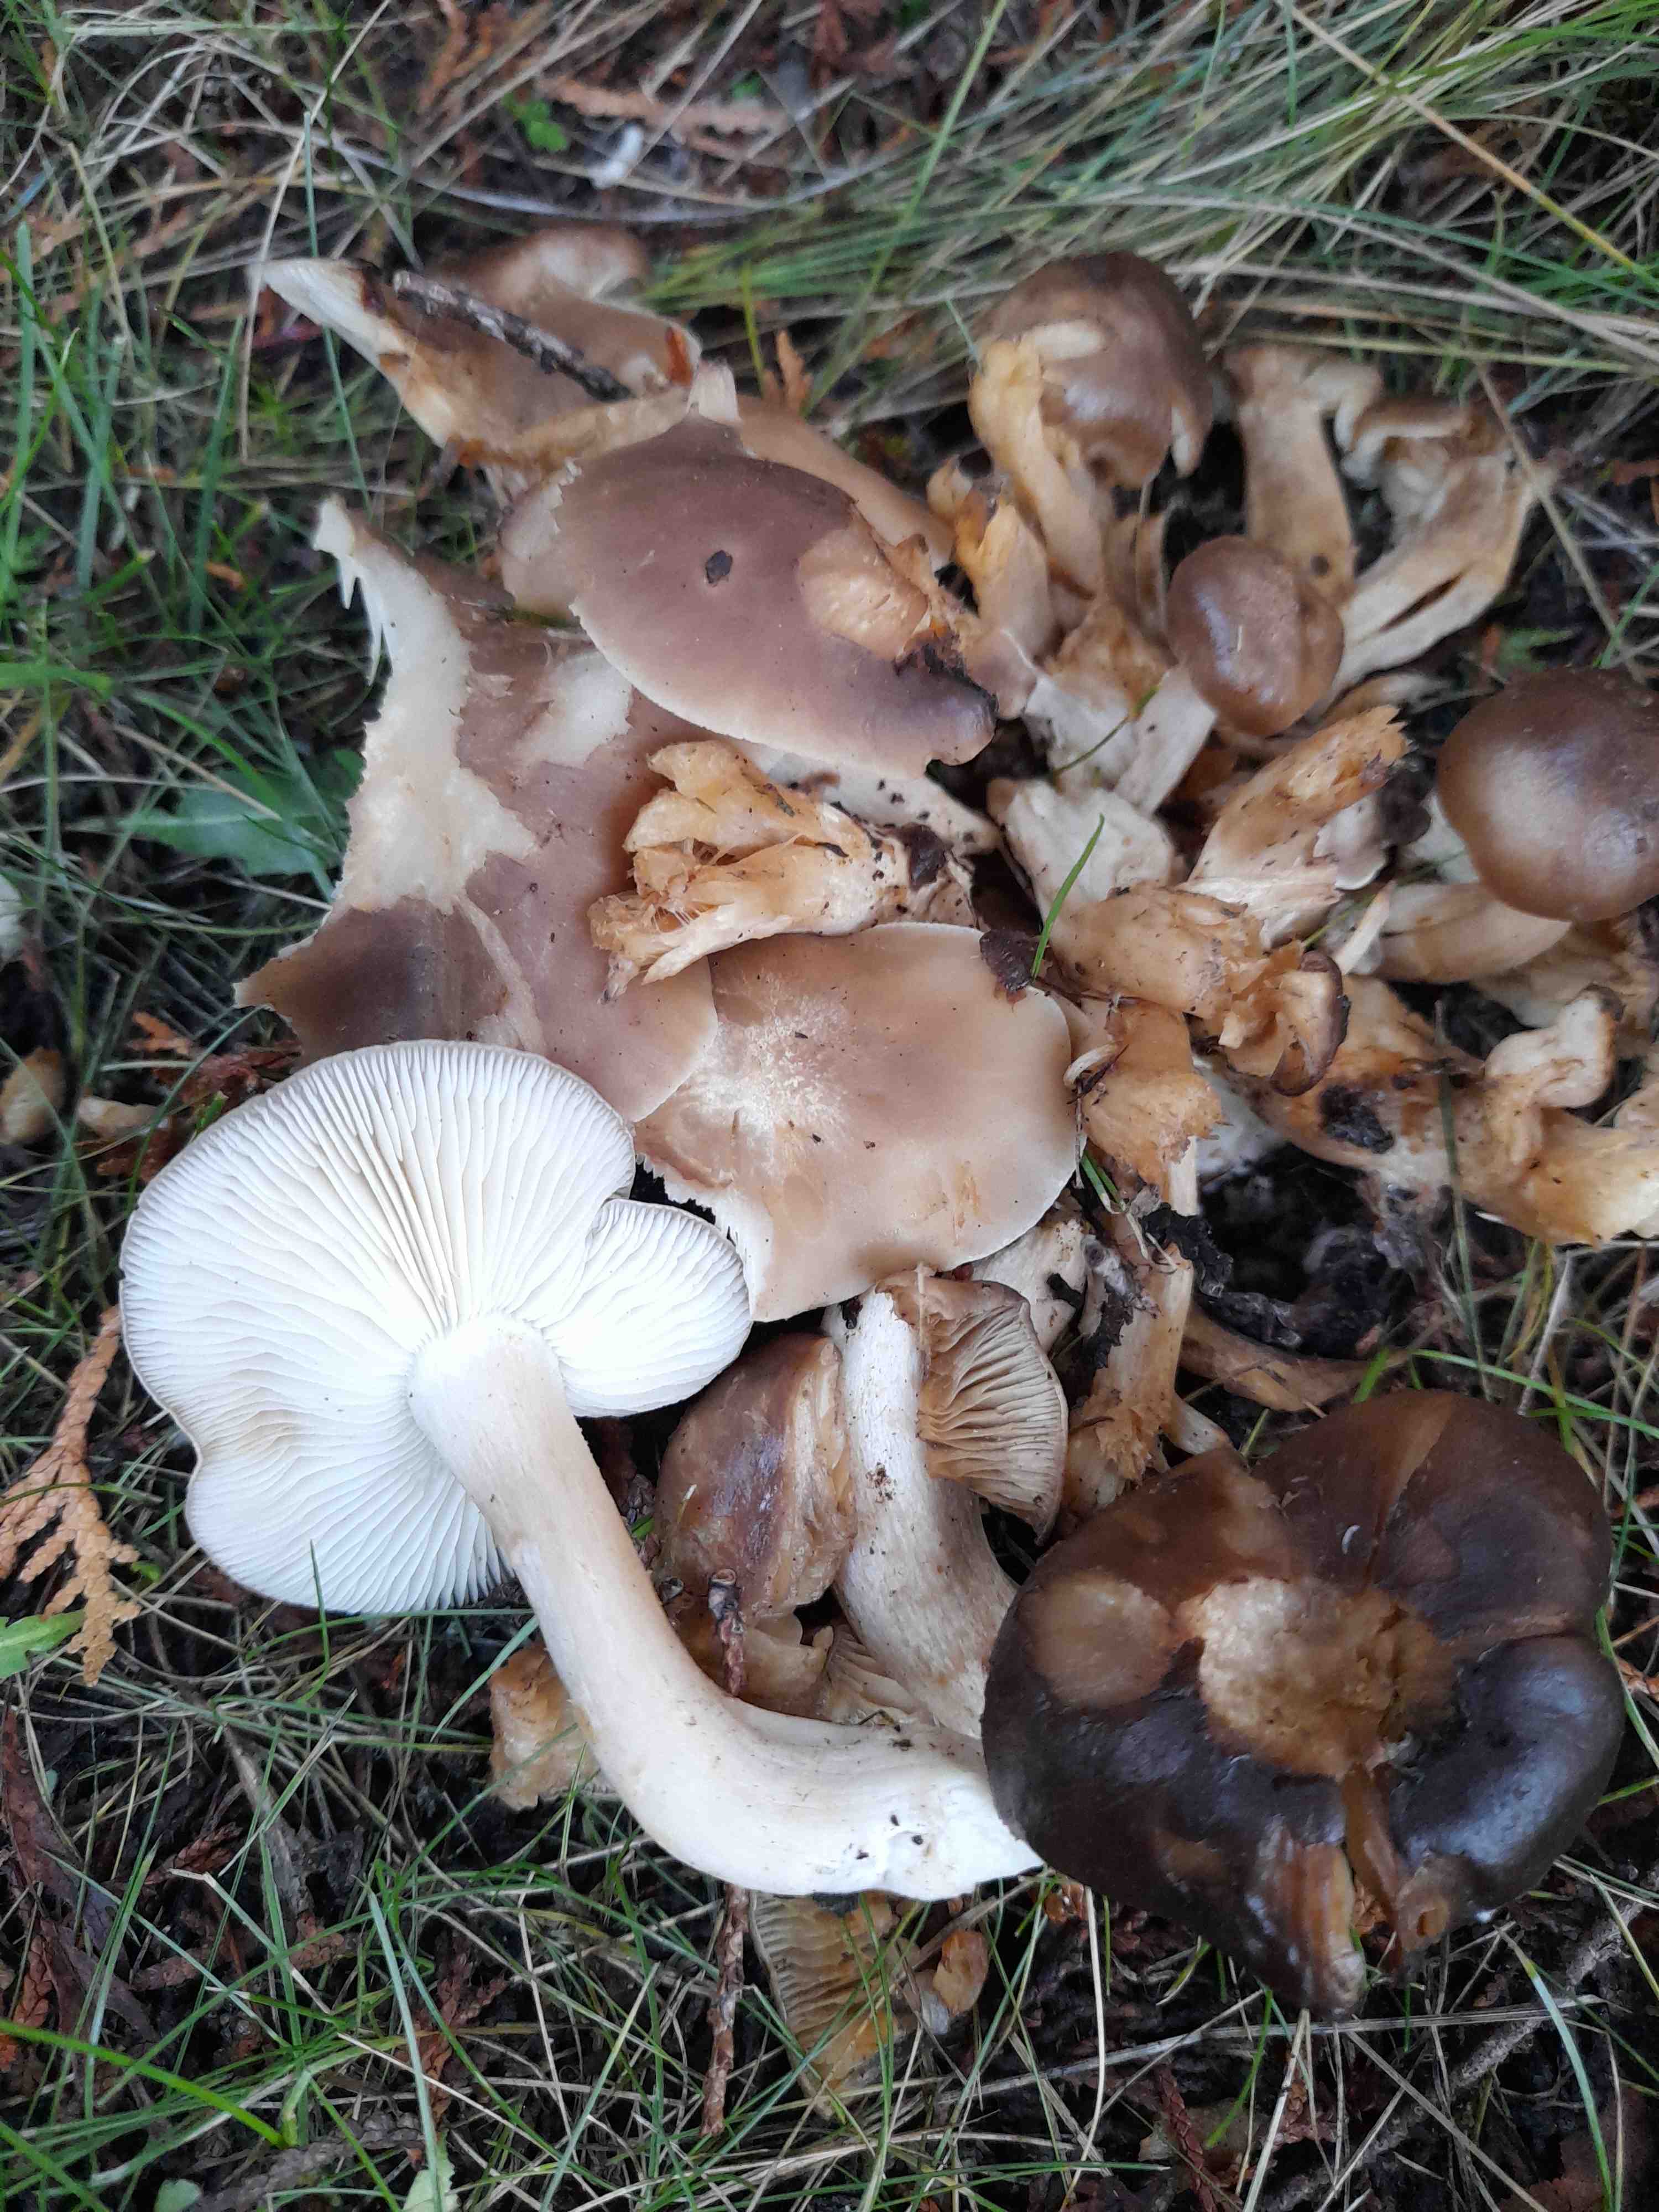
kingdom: Fungi
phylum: Basidiomycota
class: Agaricomycetes
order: Agaricales
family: Lyophyllaceae
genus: Lyophyllum
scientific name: Lyophyllum decastes
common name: Clustered domecap
